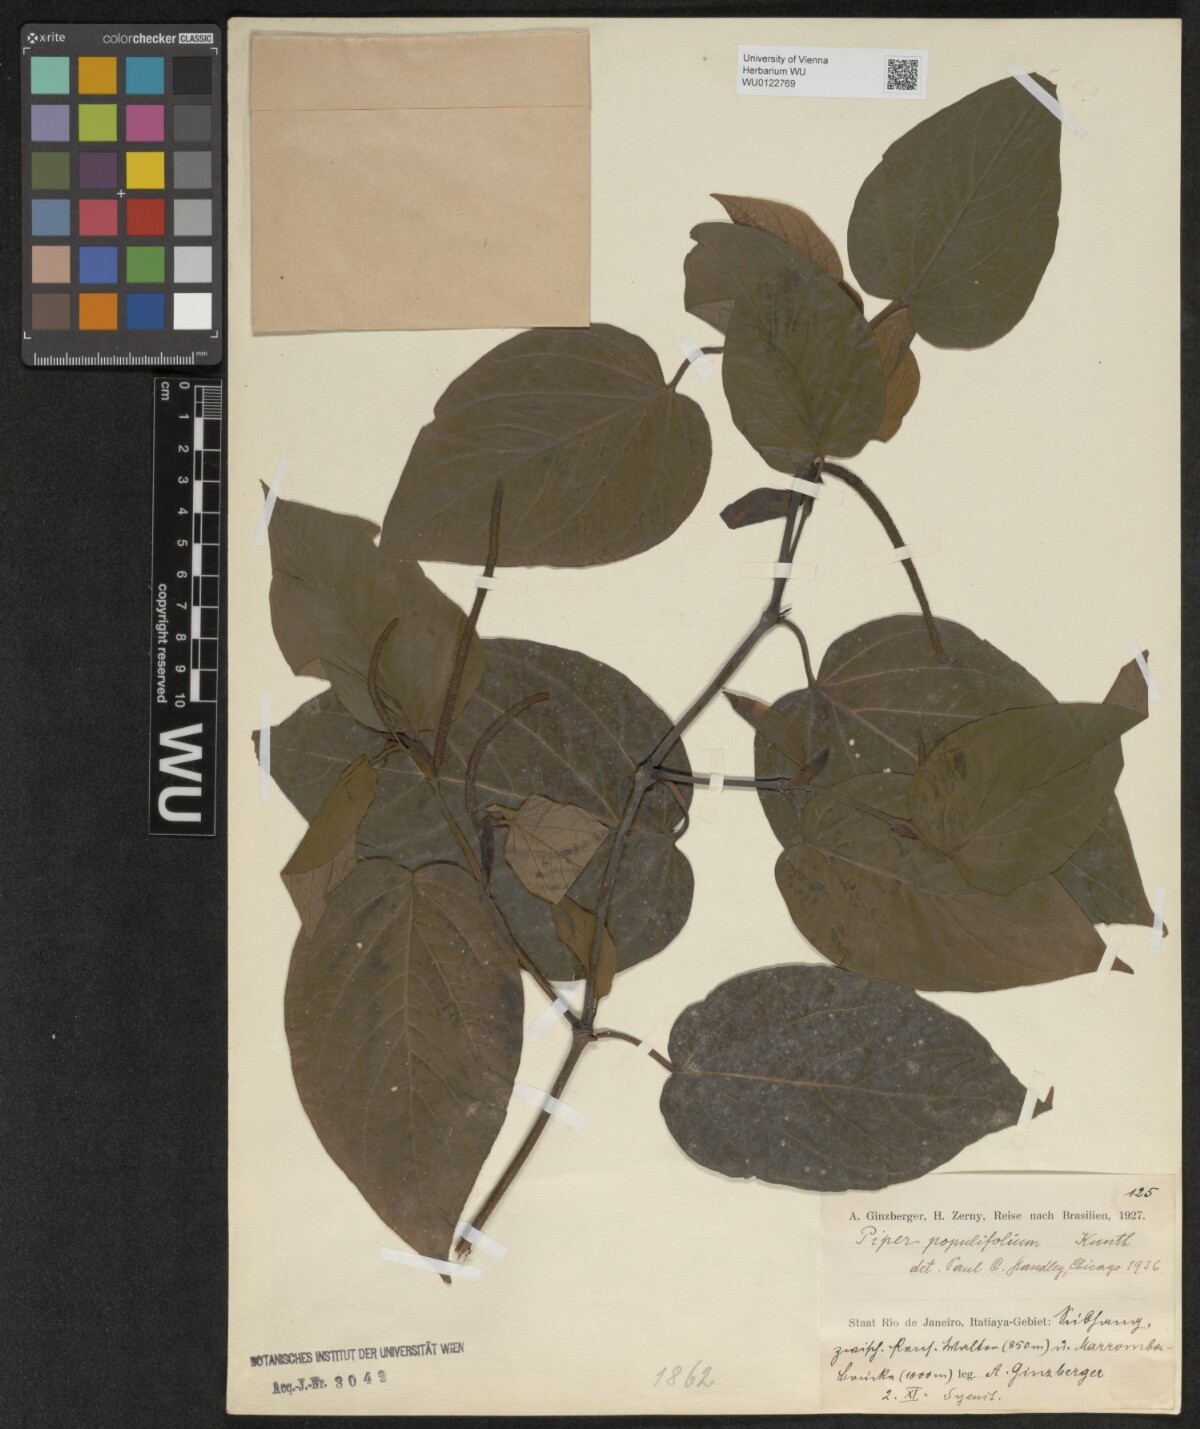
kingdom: Plantae
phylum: Tracheophyta
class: Magnoliopsida
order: Piperales
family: Piperaceae
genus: Piper
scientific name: Piper populifolium
